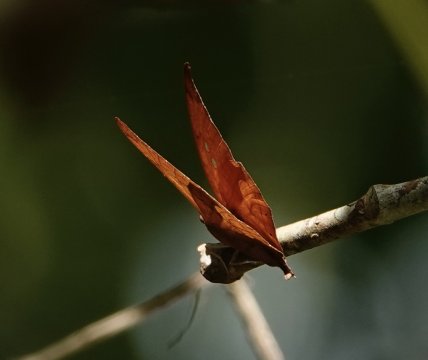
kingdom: Animalia
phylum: Arthropoda
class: Insecta
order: Lepidoptera
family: Nymphalidae
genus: Zaretis
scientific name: Zaretis itys
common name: Seasonal Leafwing
